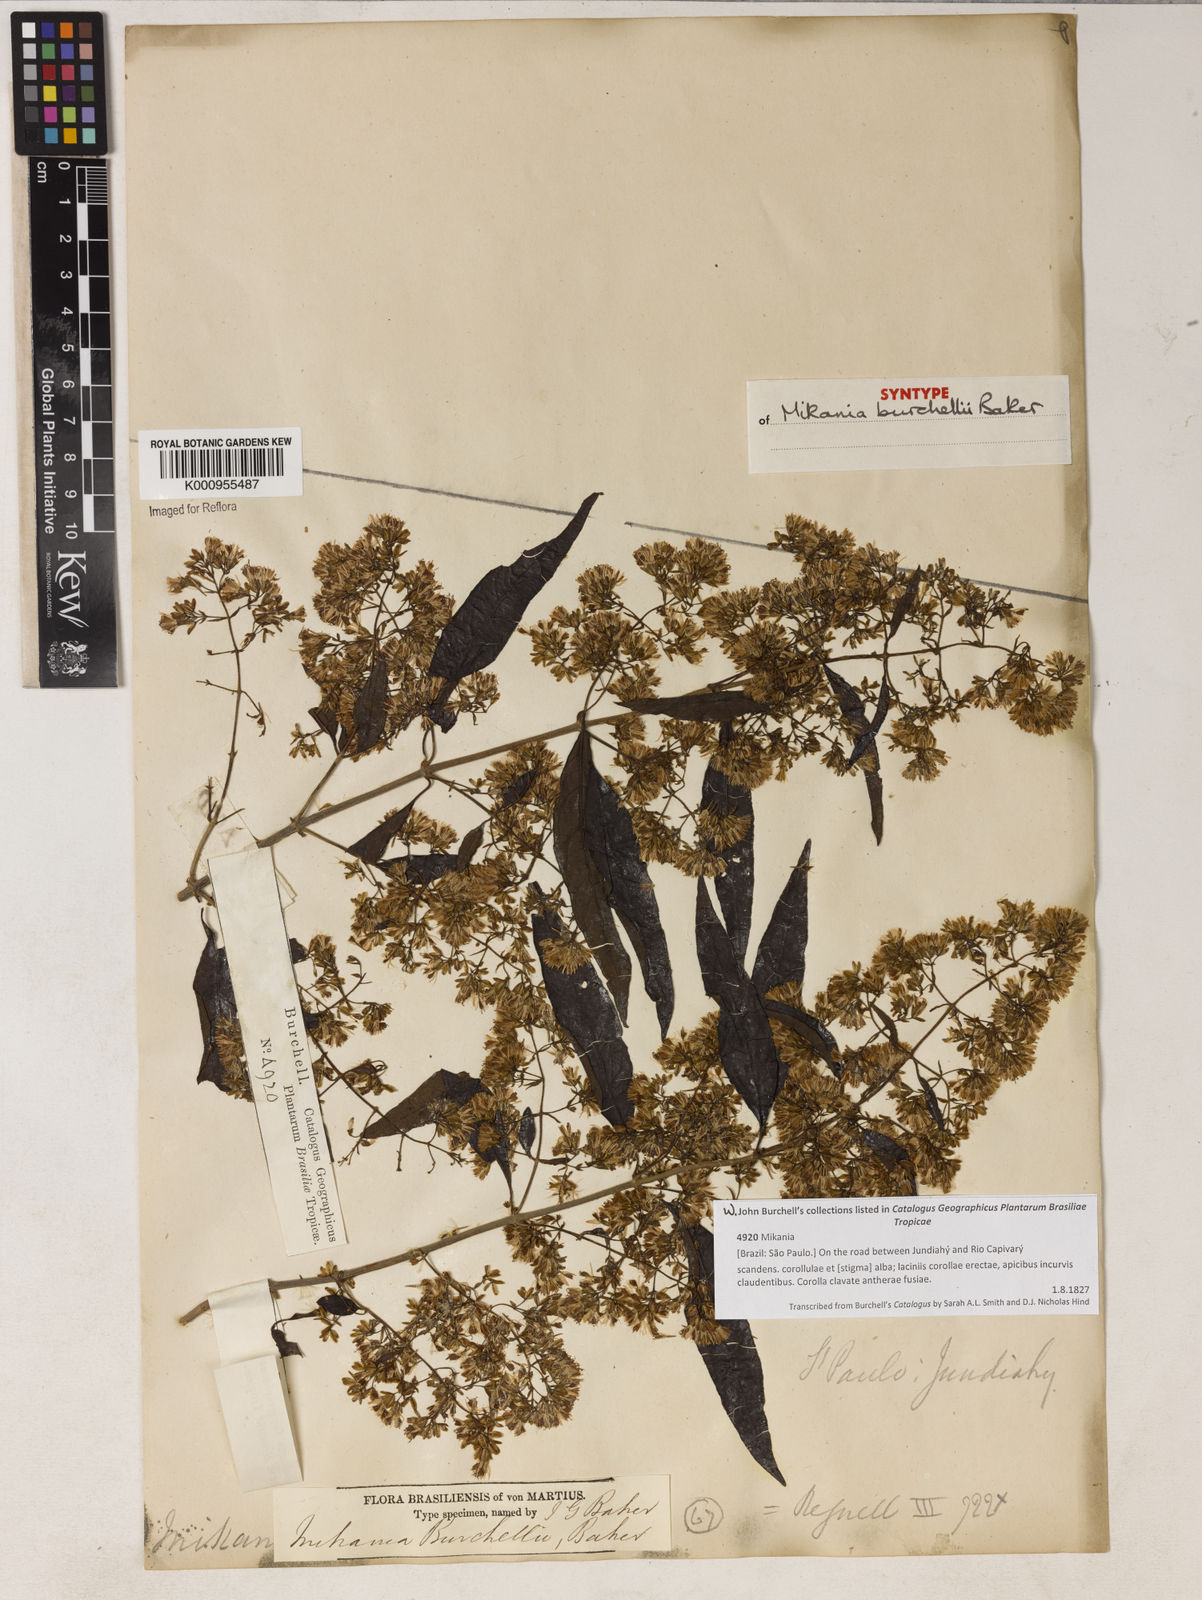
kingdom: Plantae
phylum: Tracheophyta
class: Magnoliopsida
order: Asterales
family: Asteraceae
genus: Mikania
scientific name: Mikania burchellii
